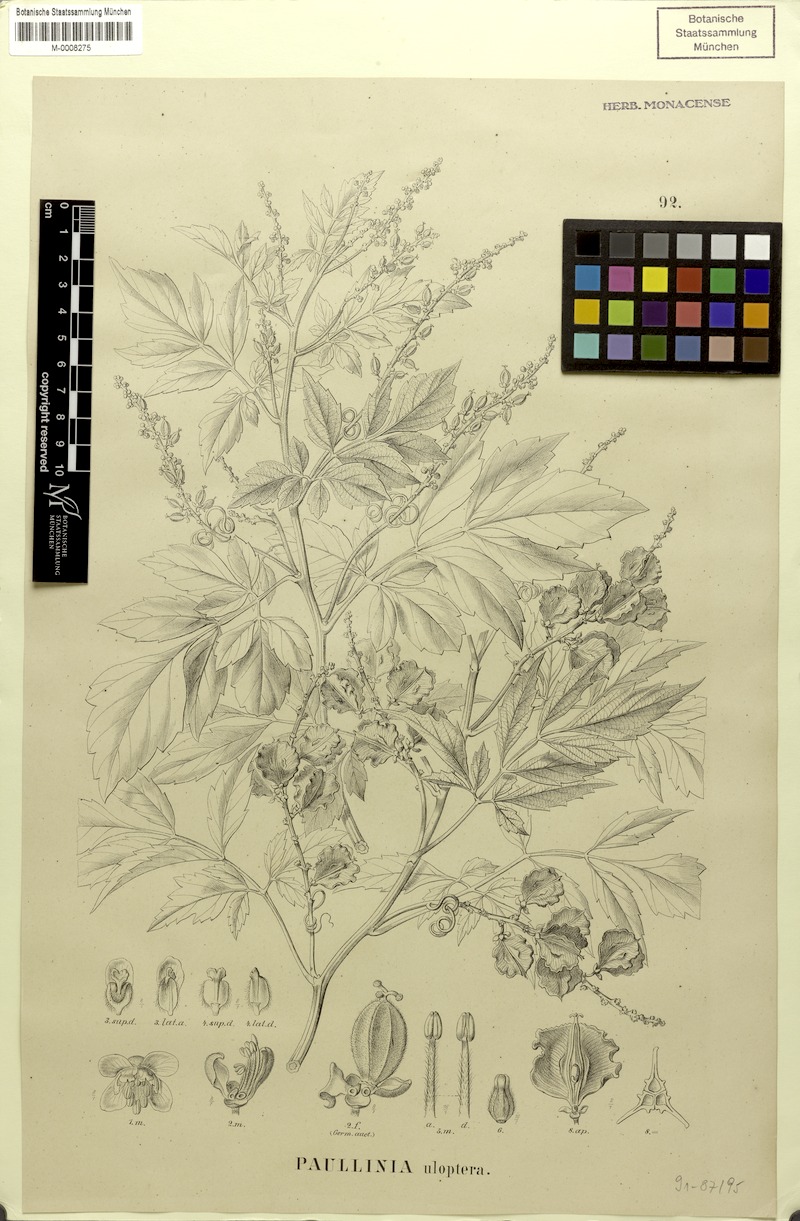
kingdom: Plantae
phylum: Tracheophyta
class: Magnoliopsida
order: Sapindales
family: Sapindaceae
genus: Paullinia
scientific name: Paullinia uloptera
